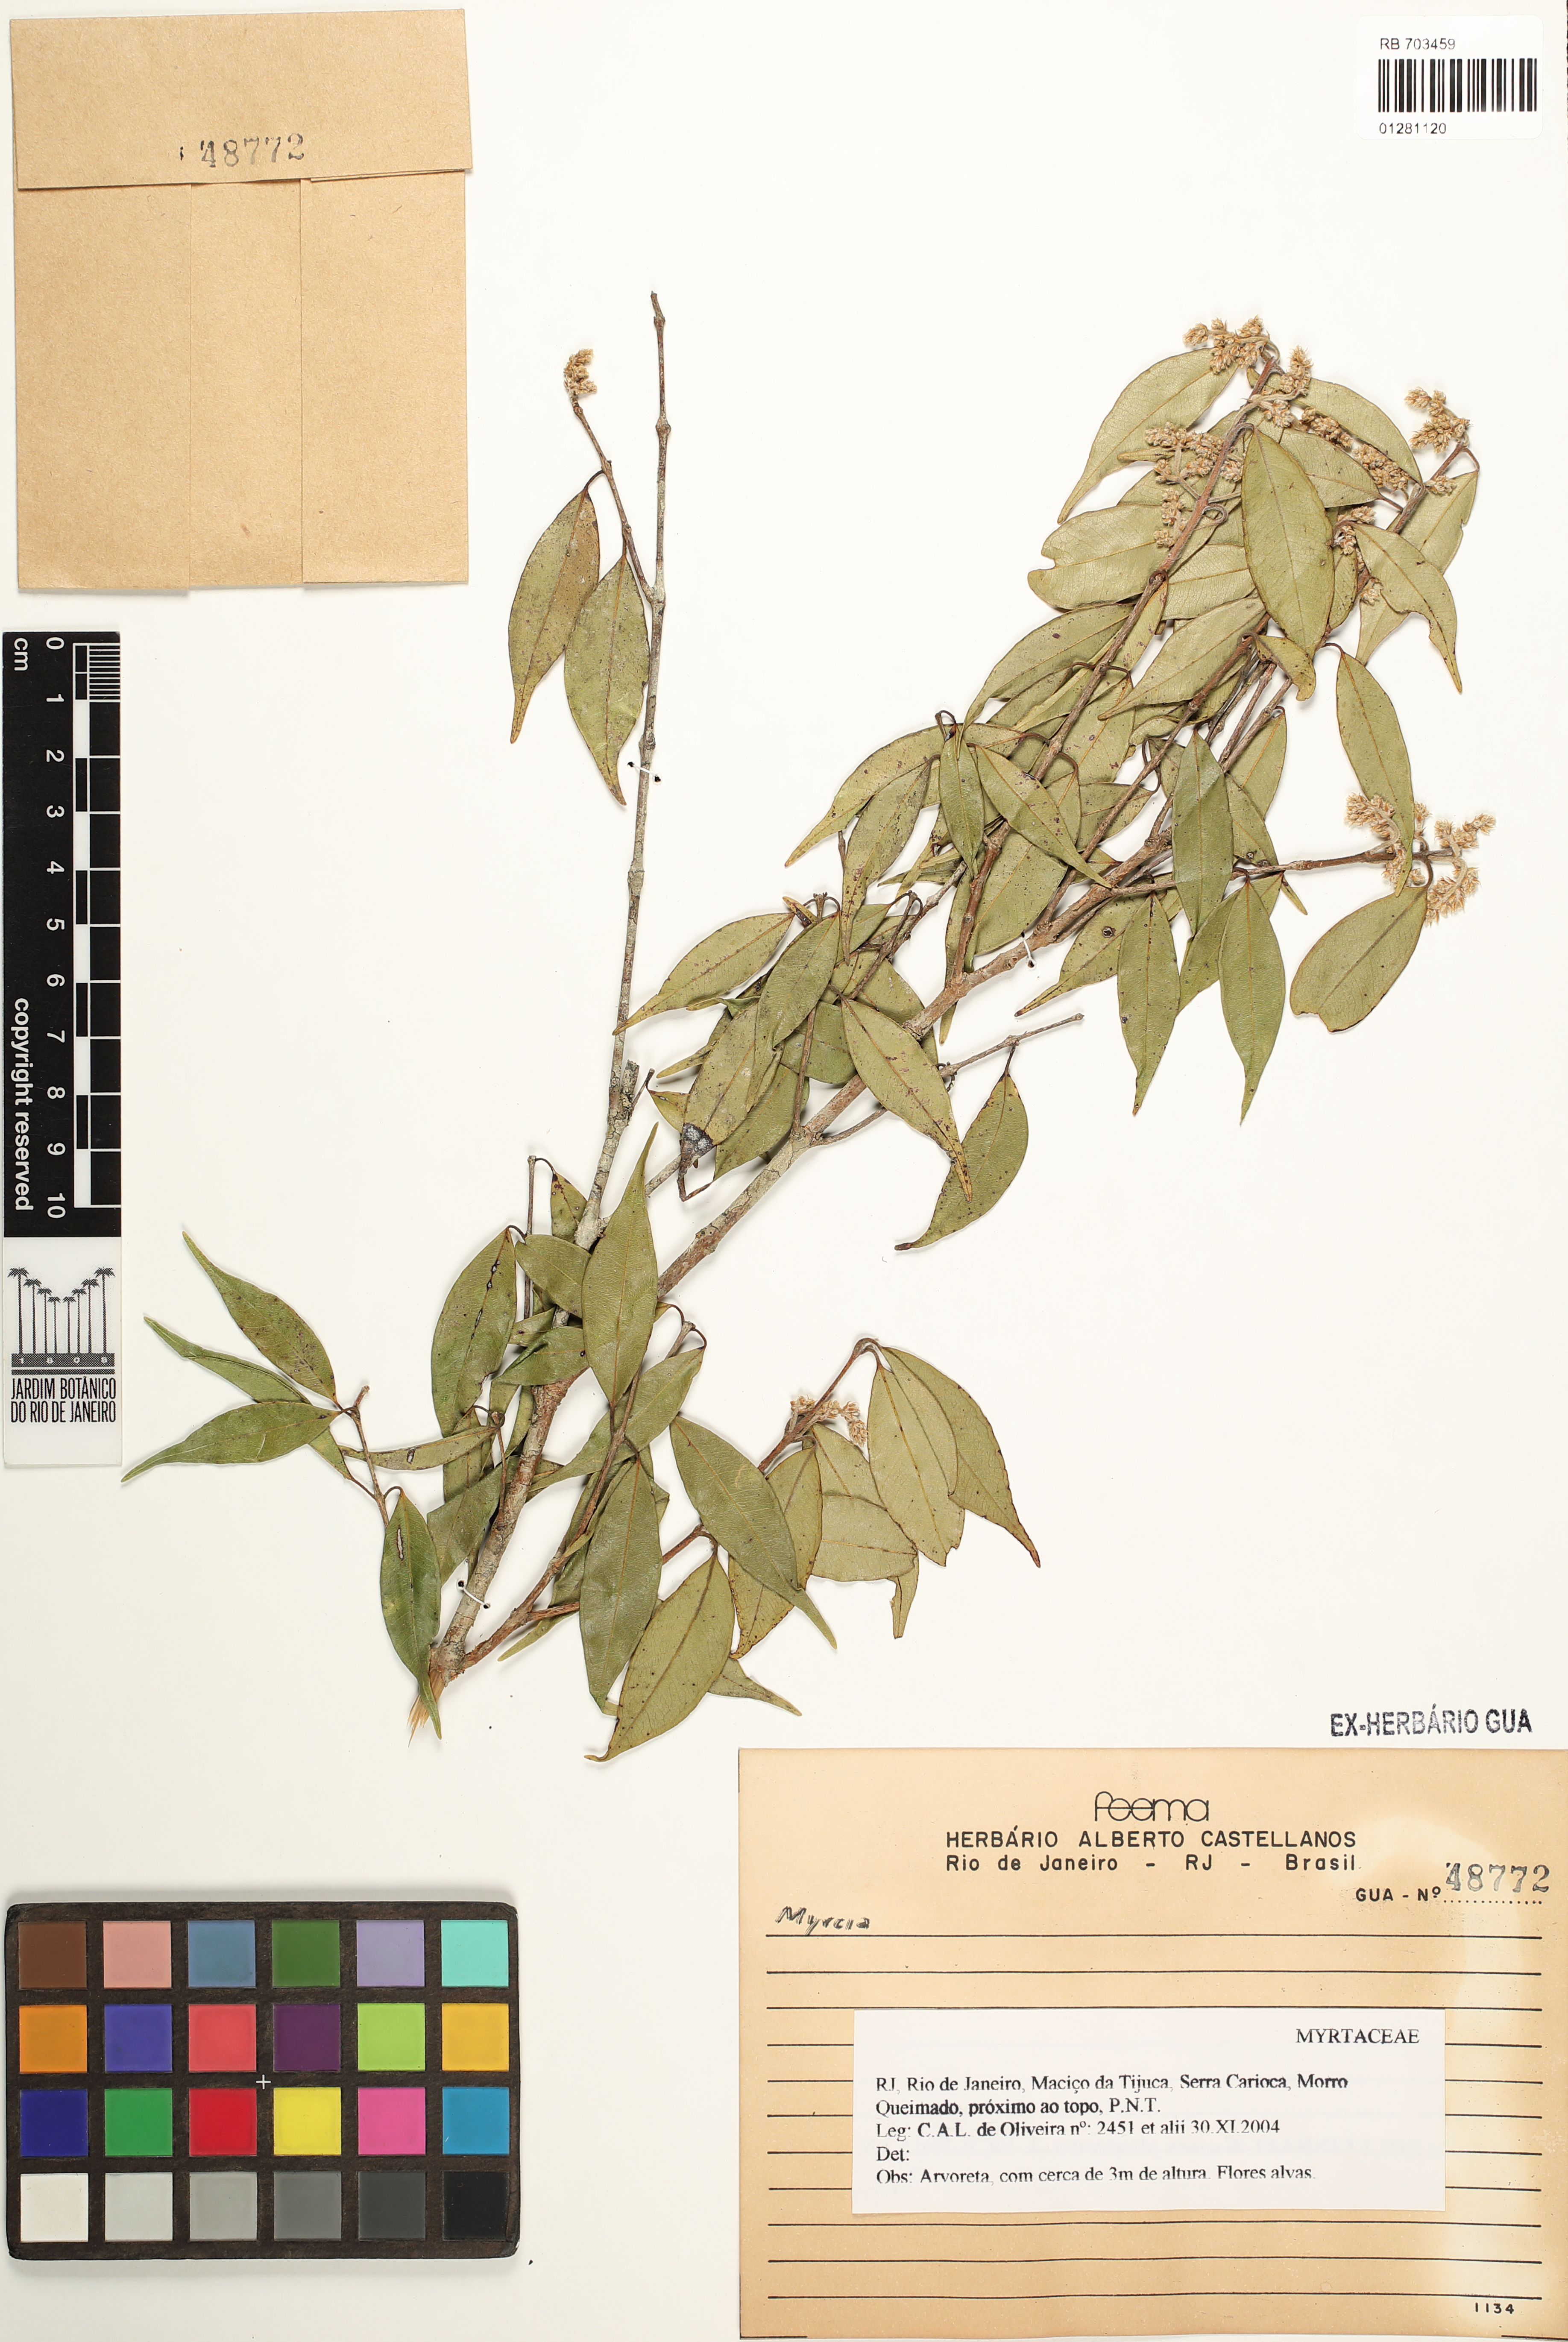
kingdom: Plantae
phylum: Tracheophyta
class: Magnoliopsida
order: Myrtales
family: Myrtaceae
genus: Myrcia
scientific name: Myrcia
